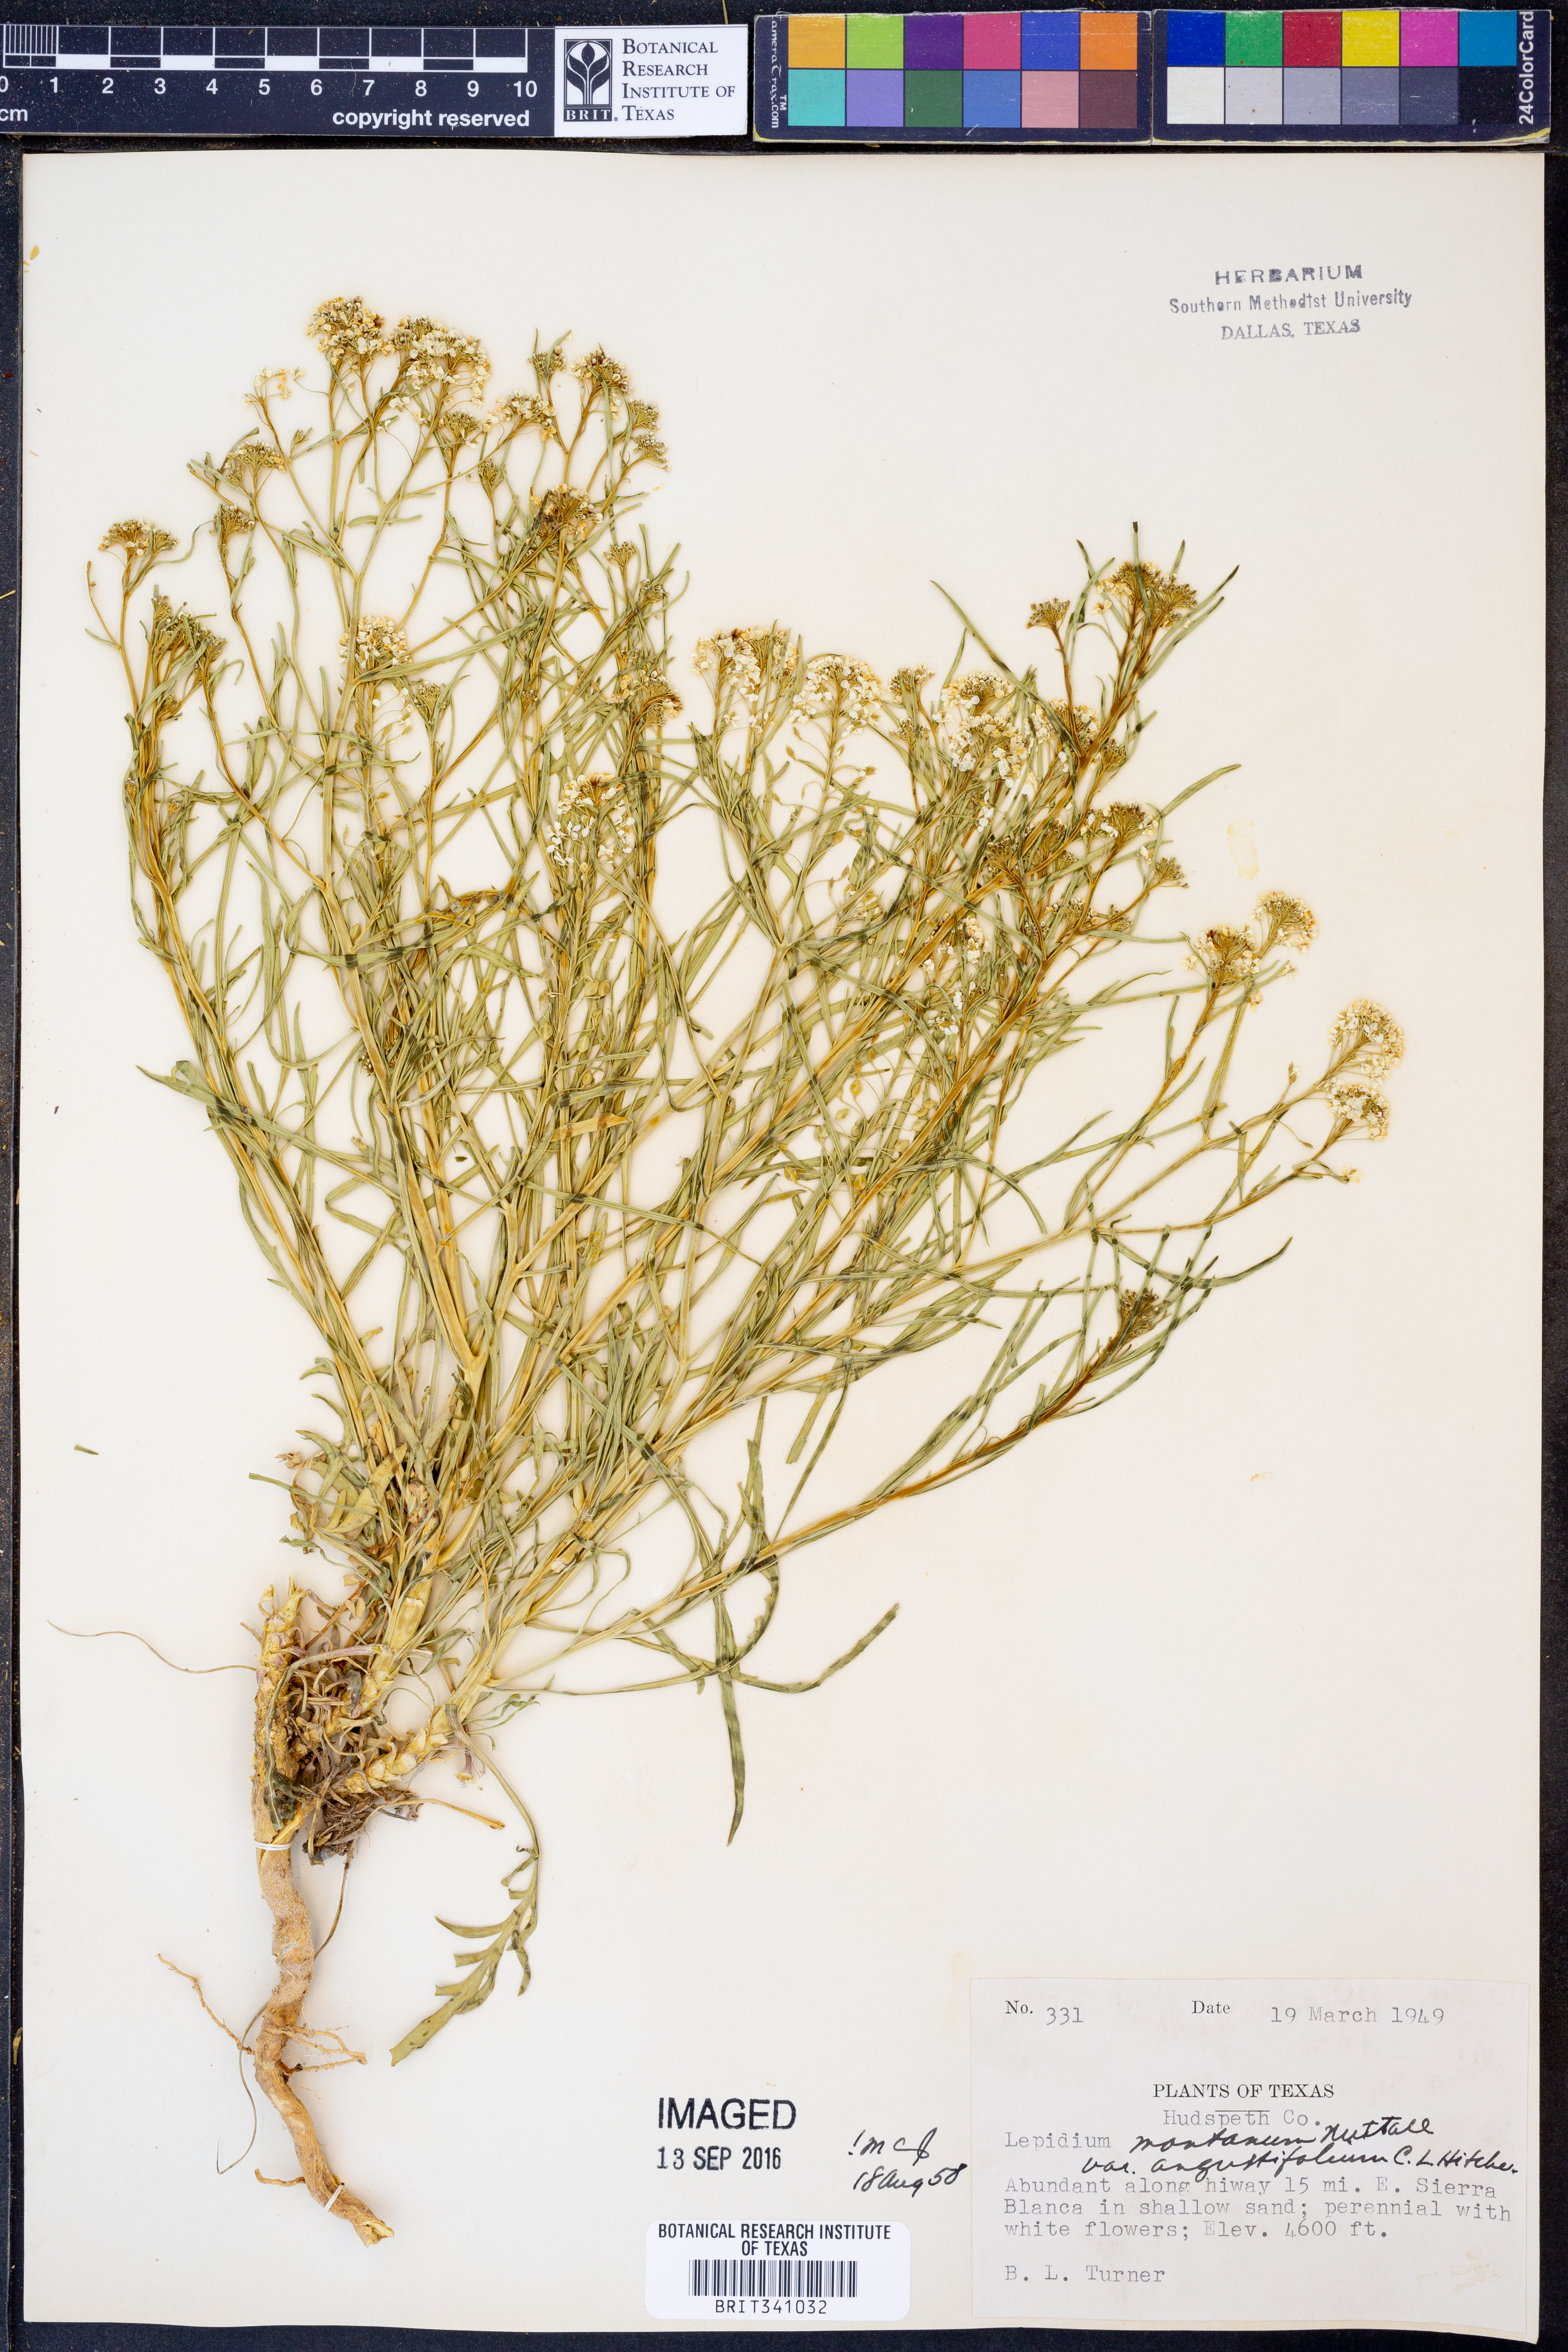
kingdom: Plantae
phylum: Tracheophyta
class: Magnoliopsida
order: Brassicales
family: Brassicaceae
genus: Lepidium
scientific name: Lepidium alyssoides
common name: Mesa pepperweed
